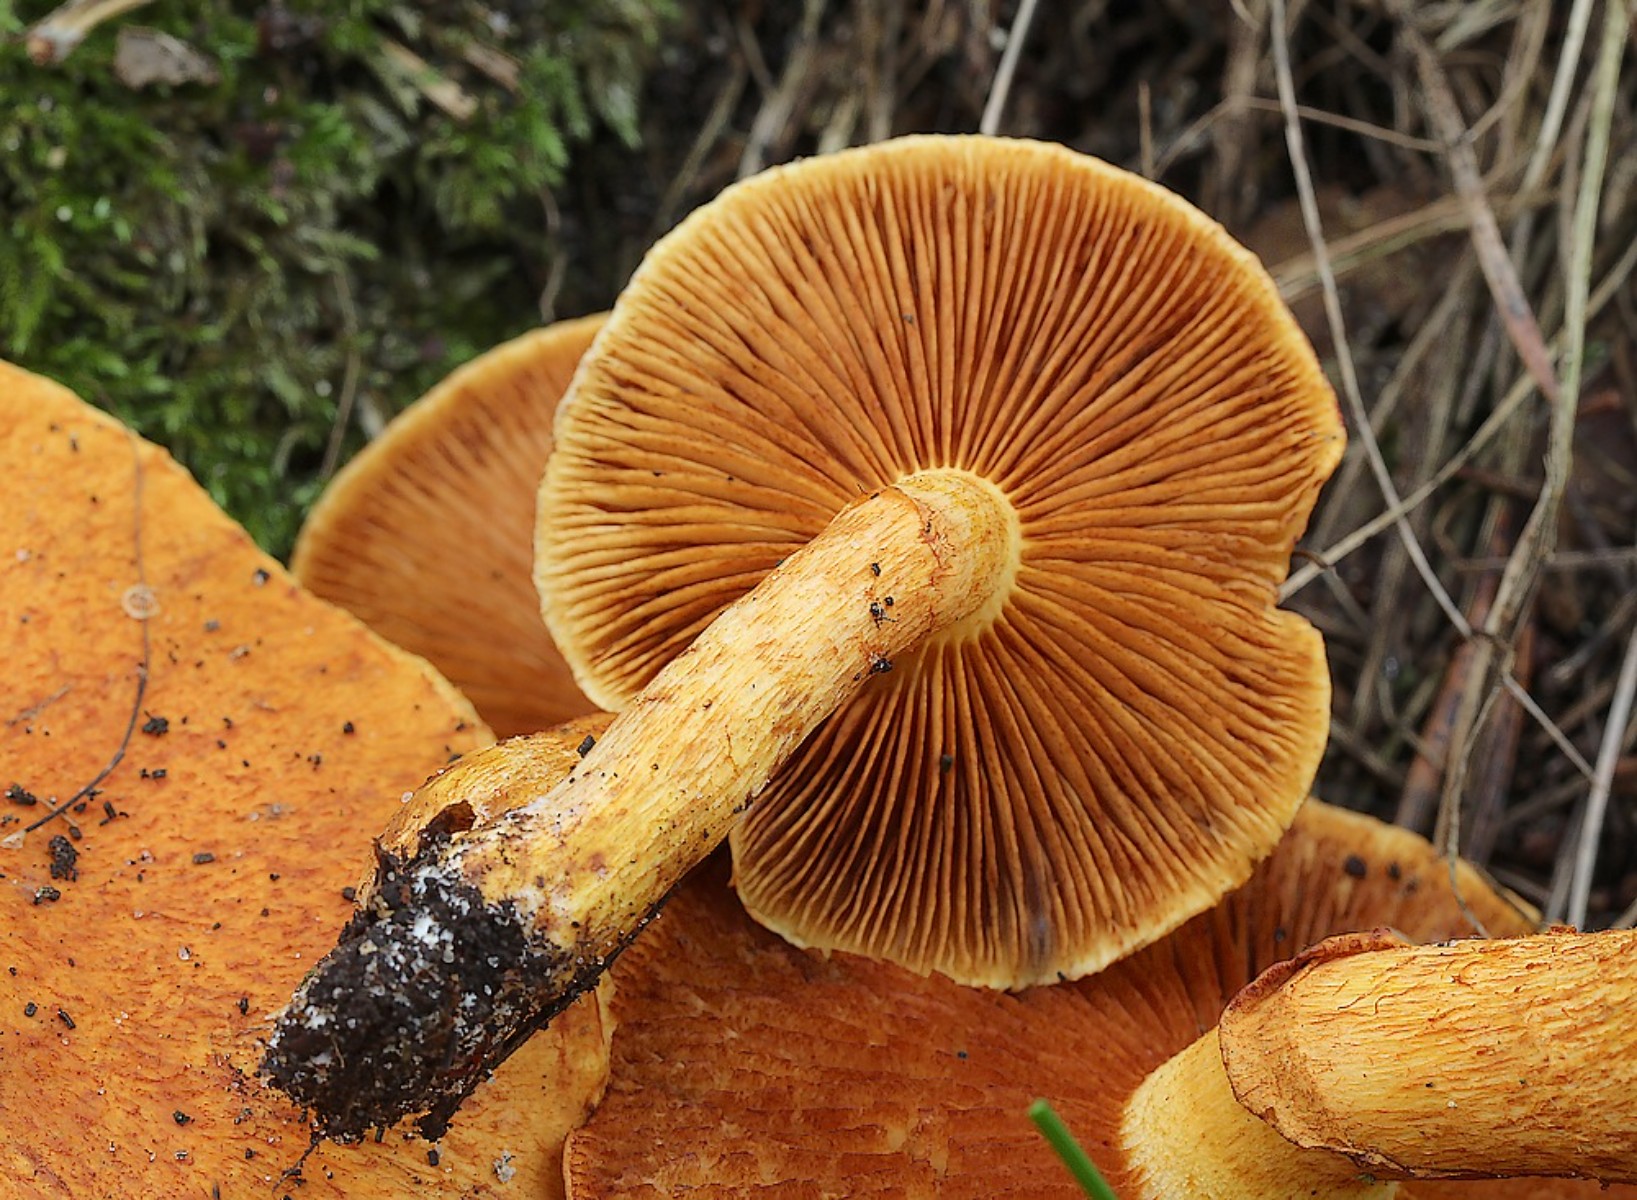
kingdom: Fungi
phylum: Basidiomycota
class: Agaricomycetes
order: Agaricales
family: Hymenogastraceae
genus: Gymnopilus
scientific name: Gymnopilus spectabilis
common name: fibret flammehat
